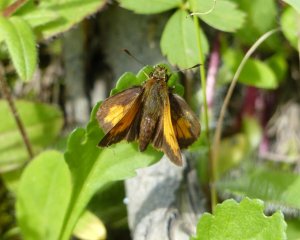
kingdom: Animalia
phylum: Arthropoda
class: Insecta
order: Lepidoptera
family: Hesperiidae
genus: Lon
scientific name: Lon hobomok
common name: Hobomok Skipper
